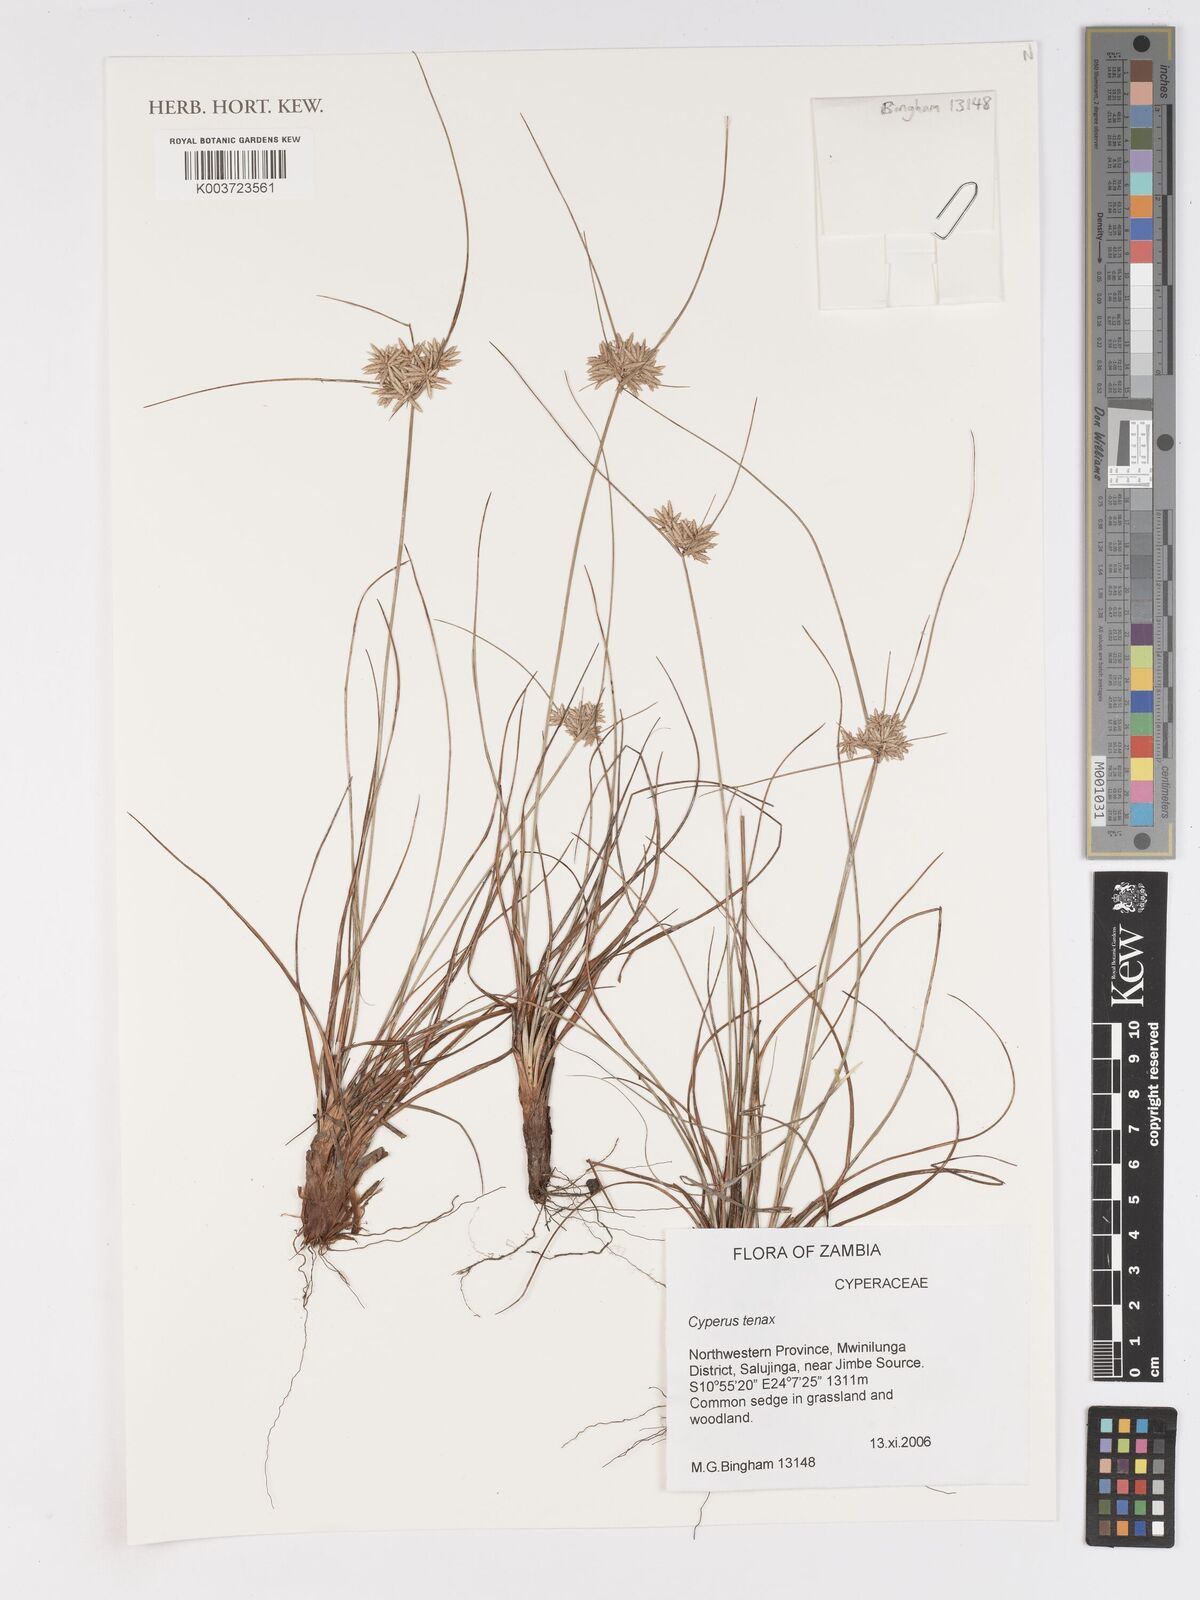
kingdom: Plantae
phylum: Tracheophyta
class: Liliopsida
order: Poales
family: Cyperaceae
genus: Cyperus
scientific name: Cyperus tenax
